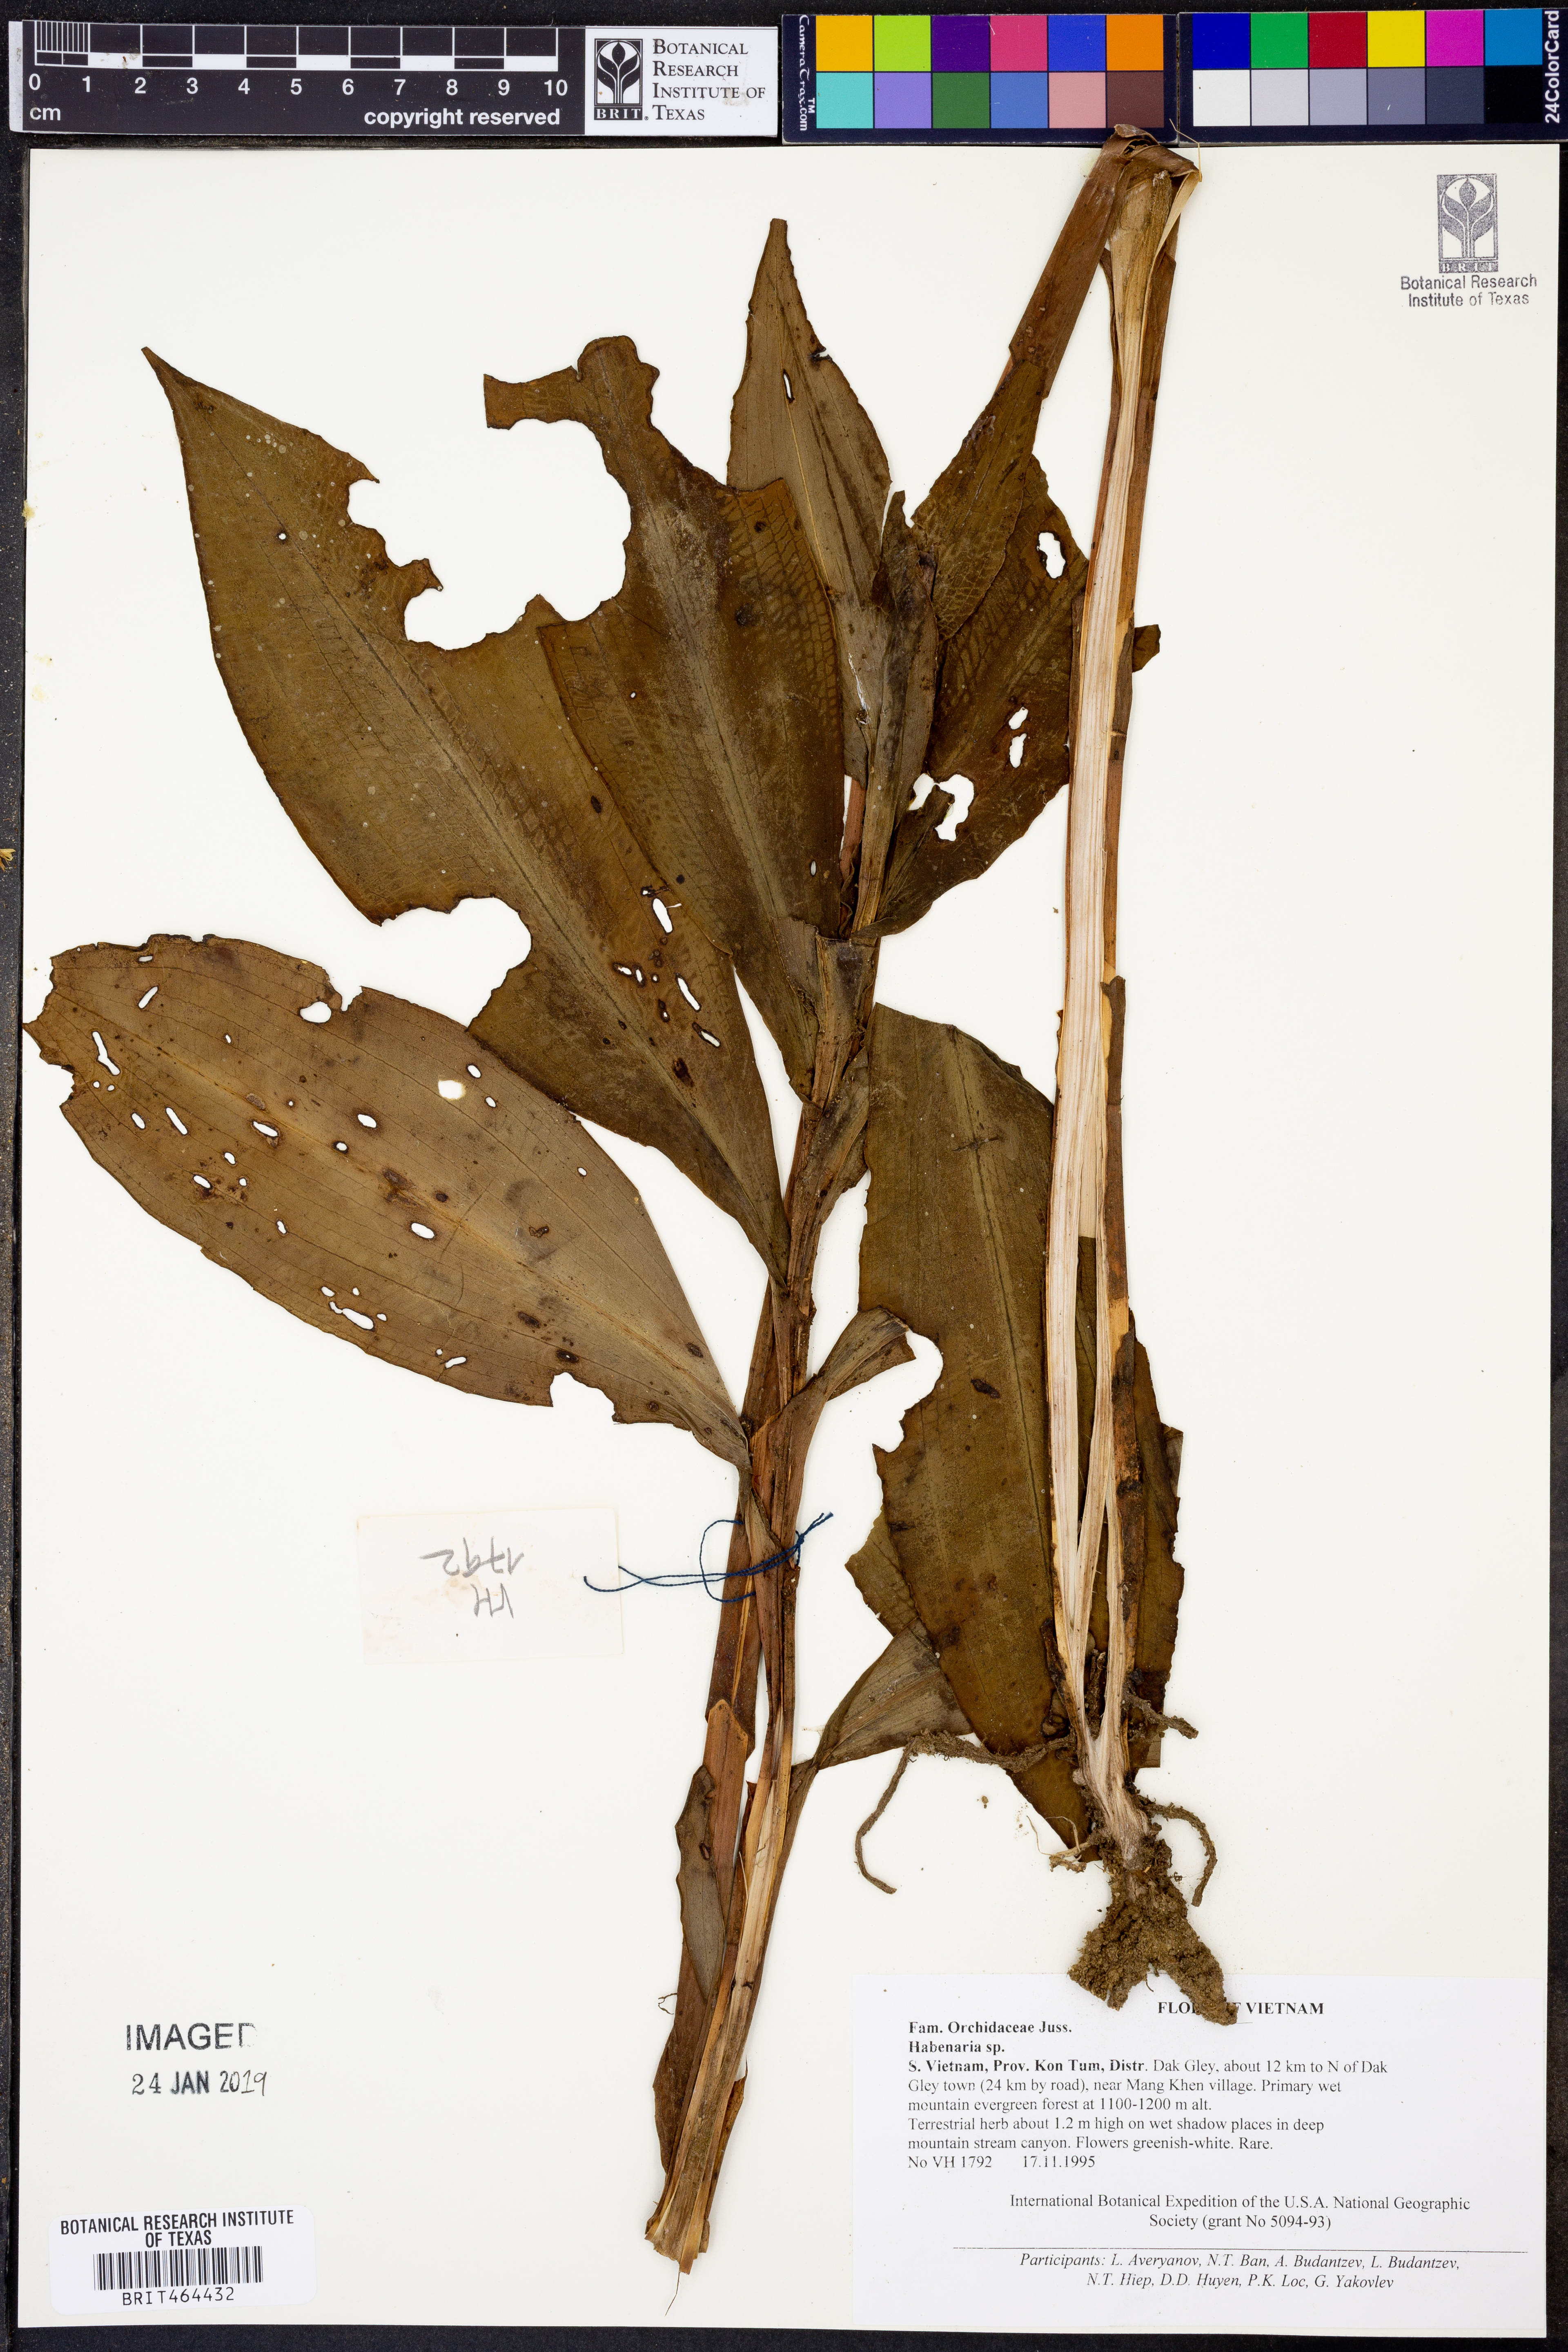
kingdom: Plantae
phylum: Tracheophyta
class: Liliopsida
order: Asparagales
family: Orchidaceae
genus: Habenaria
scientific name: Habenaria
